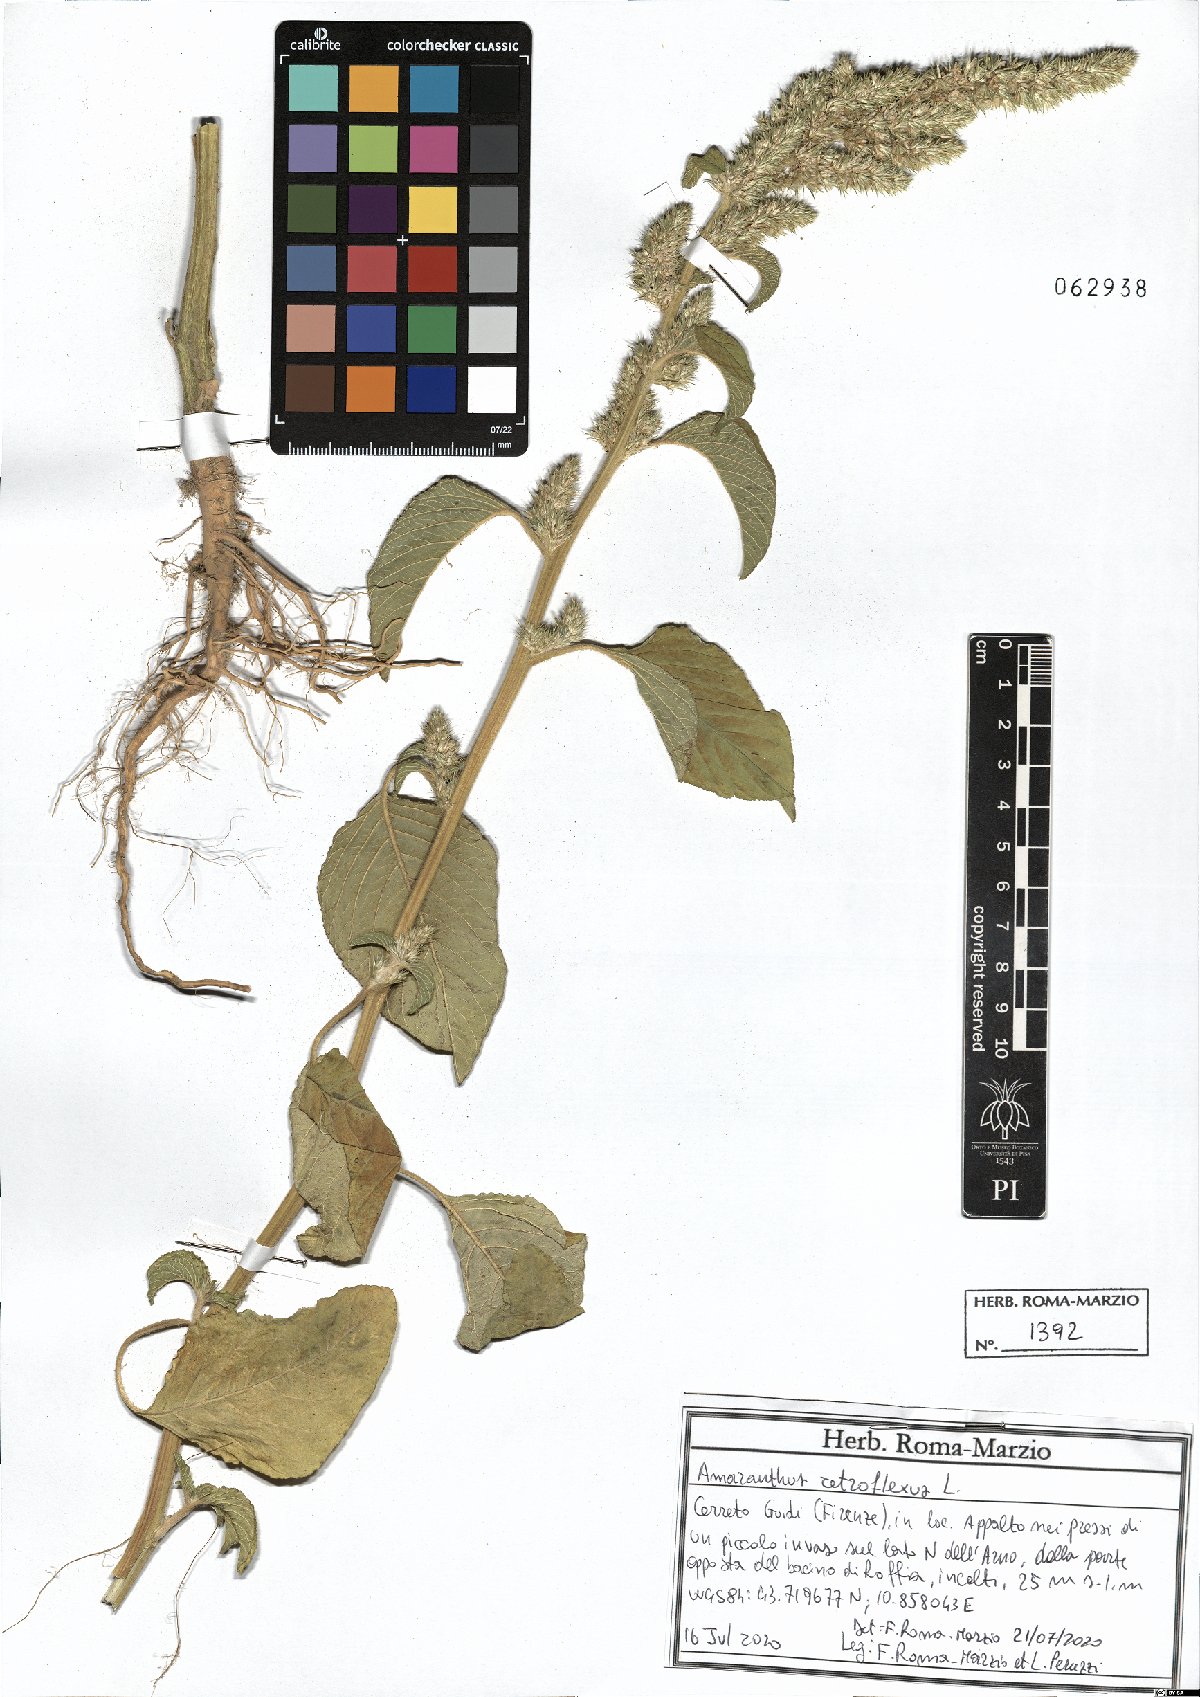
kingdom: Plantae
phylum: Tracheophyta
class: Magnoliopsida
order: Caryophyllales
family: Amaranthaceae
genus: Amaranthus
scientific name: Amaranthus retroflexus
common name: Redroot amaranth
